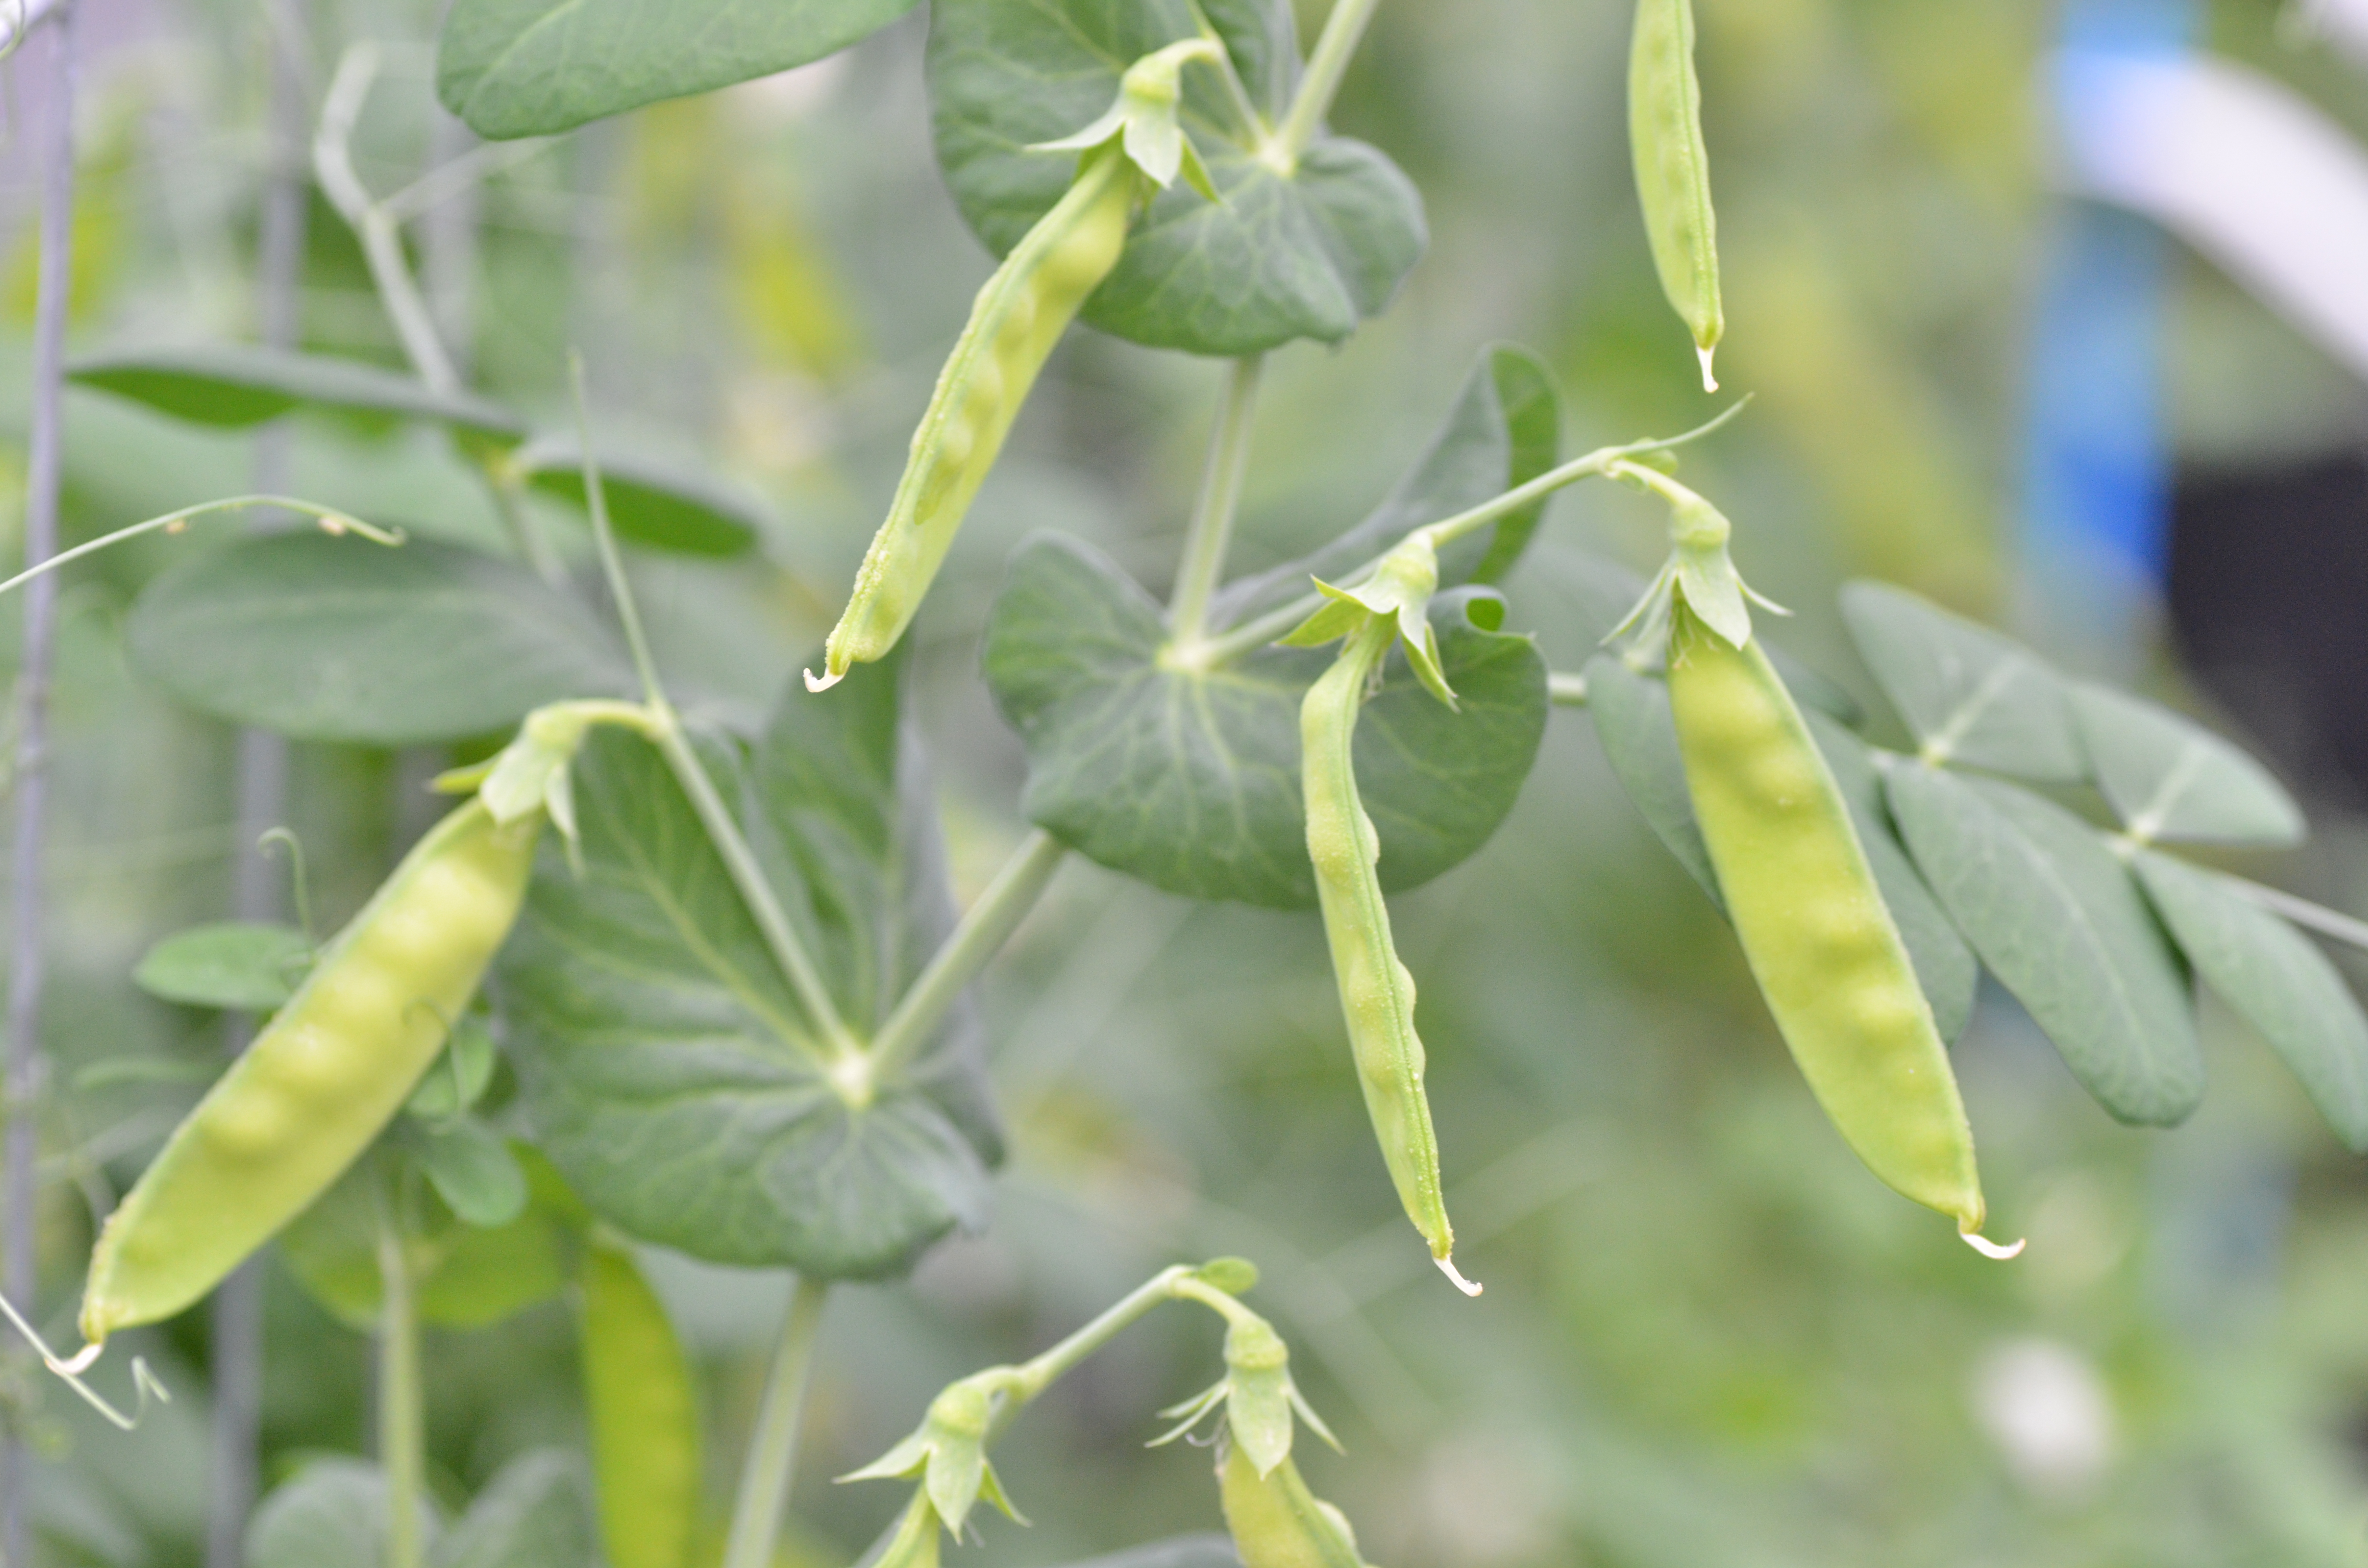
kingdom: Plantae
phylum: Tracheophyta
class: Magnoliopsida
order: Fabales
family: Fabaceae
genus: Lathyrus
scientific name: Lathyrus oleraceus
